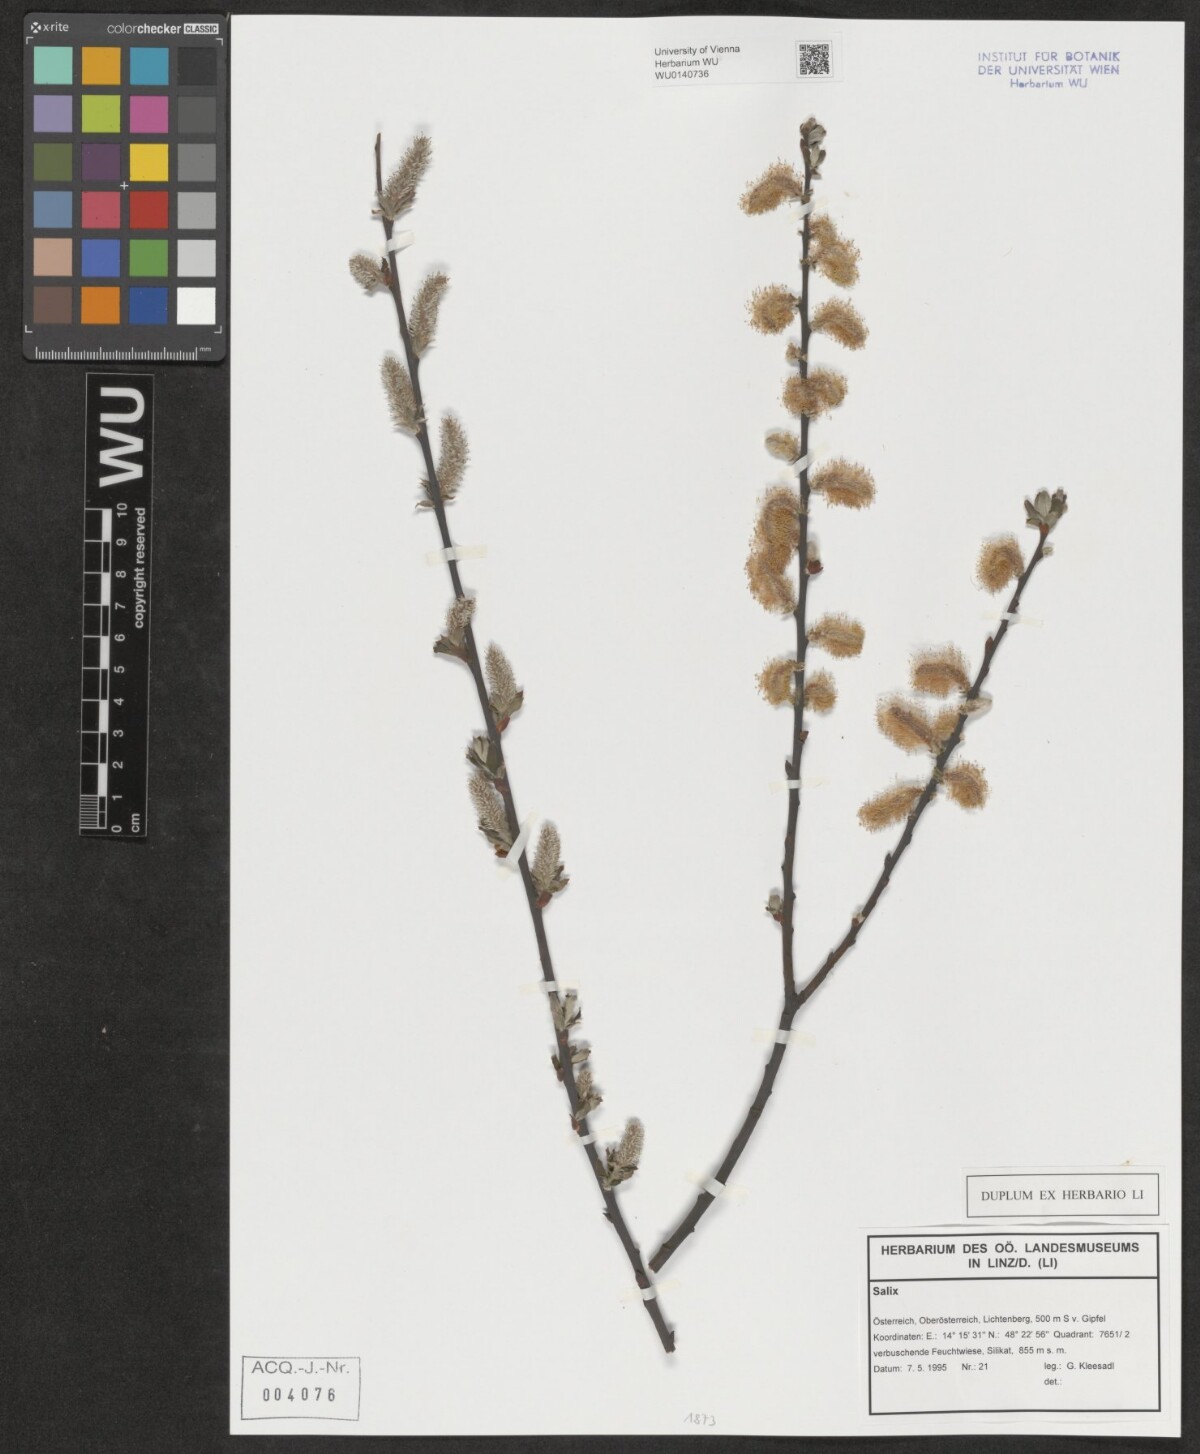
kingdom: Plantae
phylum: Tracheophyta
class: Magnoliopsida
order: Malpighiales
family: Salicaceae
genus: Salix
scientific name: Salix
